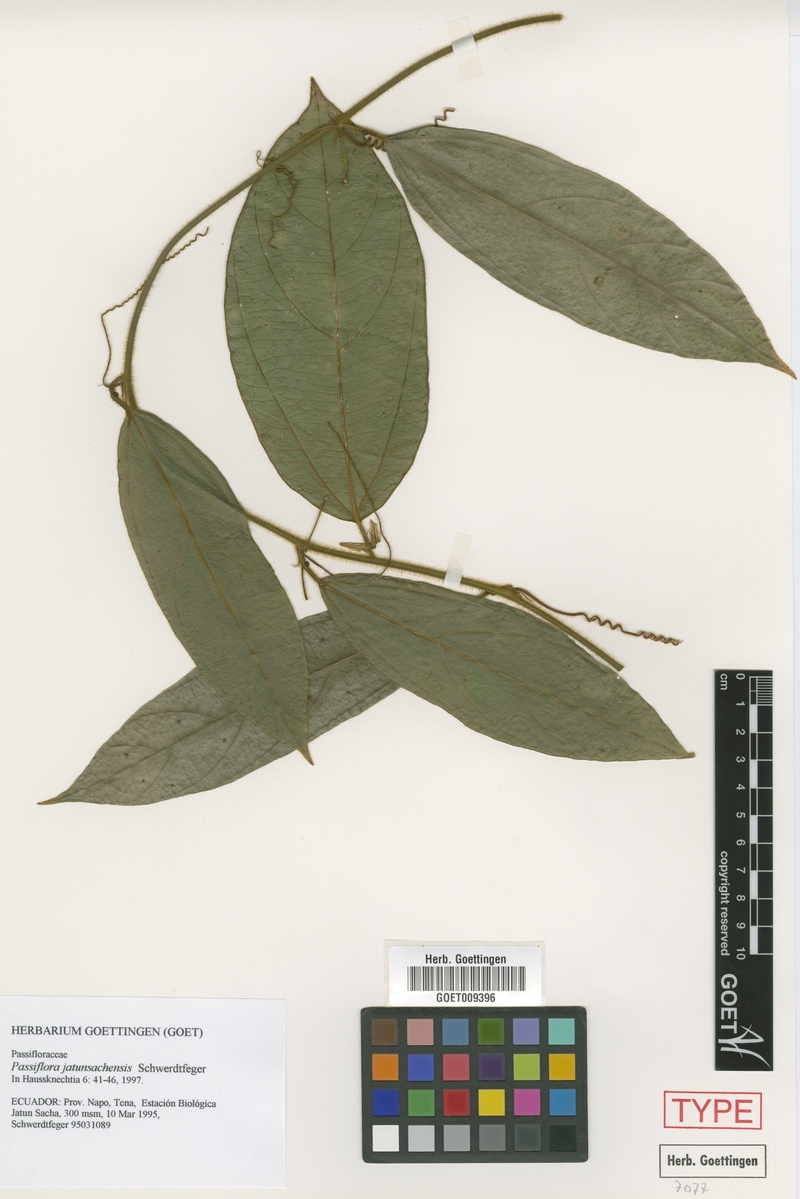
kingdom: Plantae
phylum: Tracheophyta
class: Magnoliopsida
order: Malpighiales
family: Passifloraceae
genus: Passiflora
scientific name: Passiflora jatunsachensis
